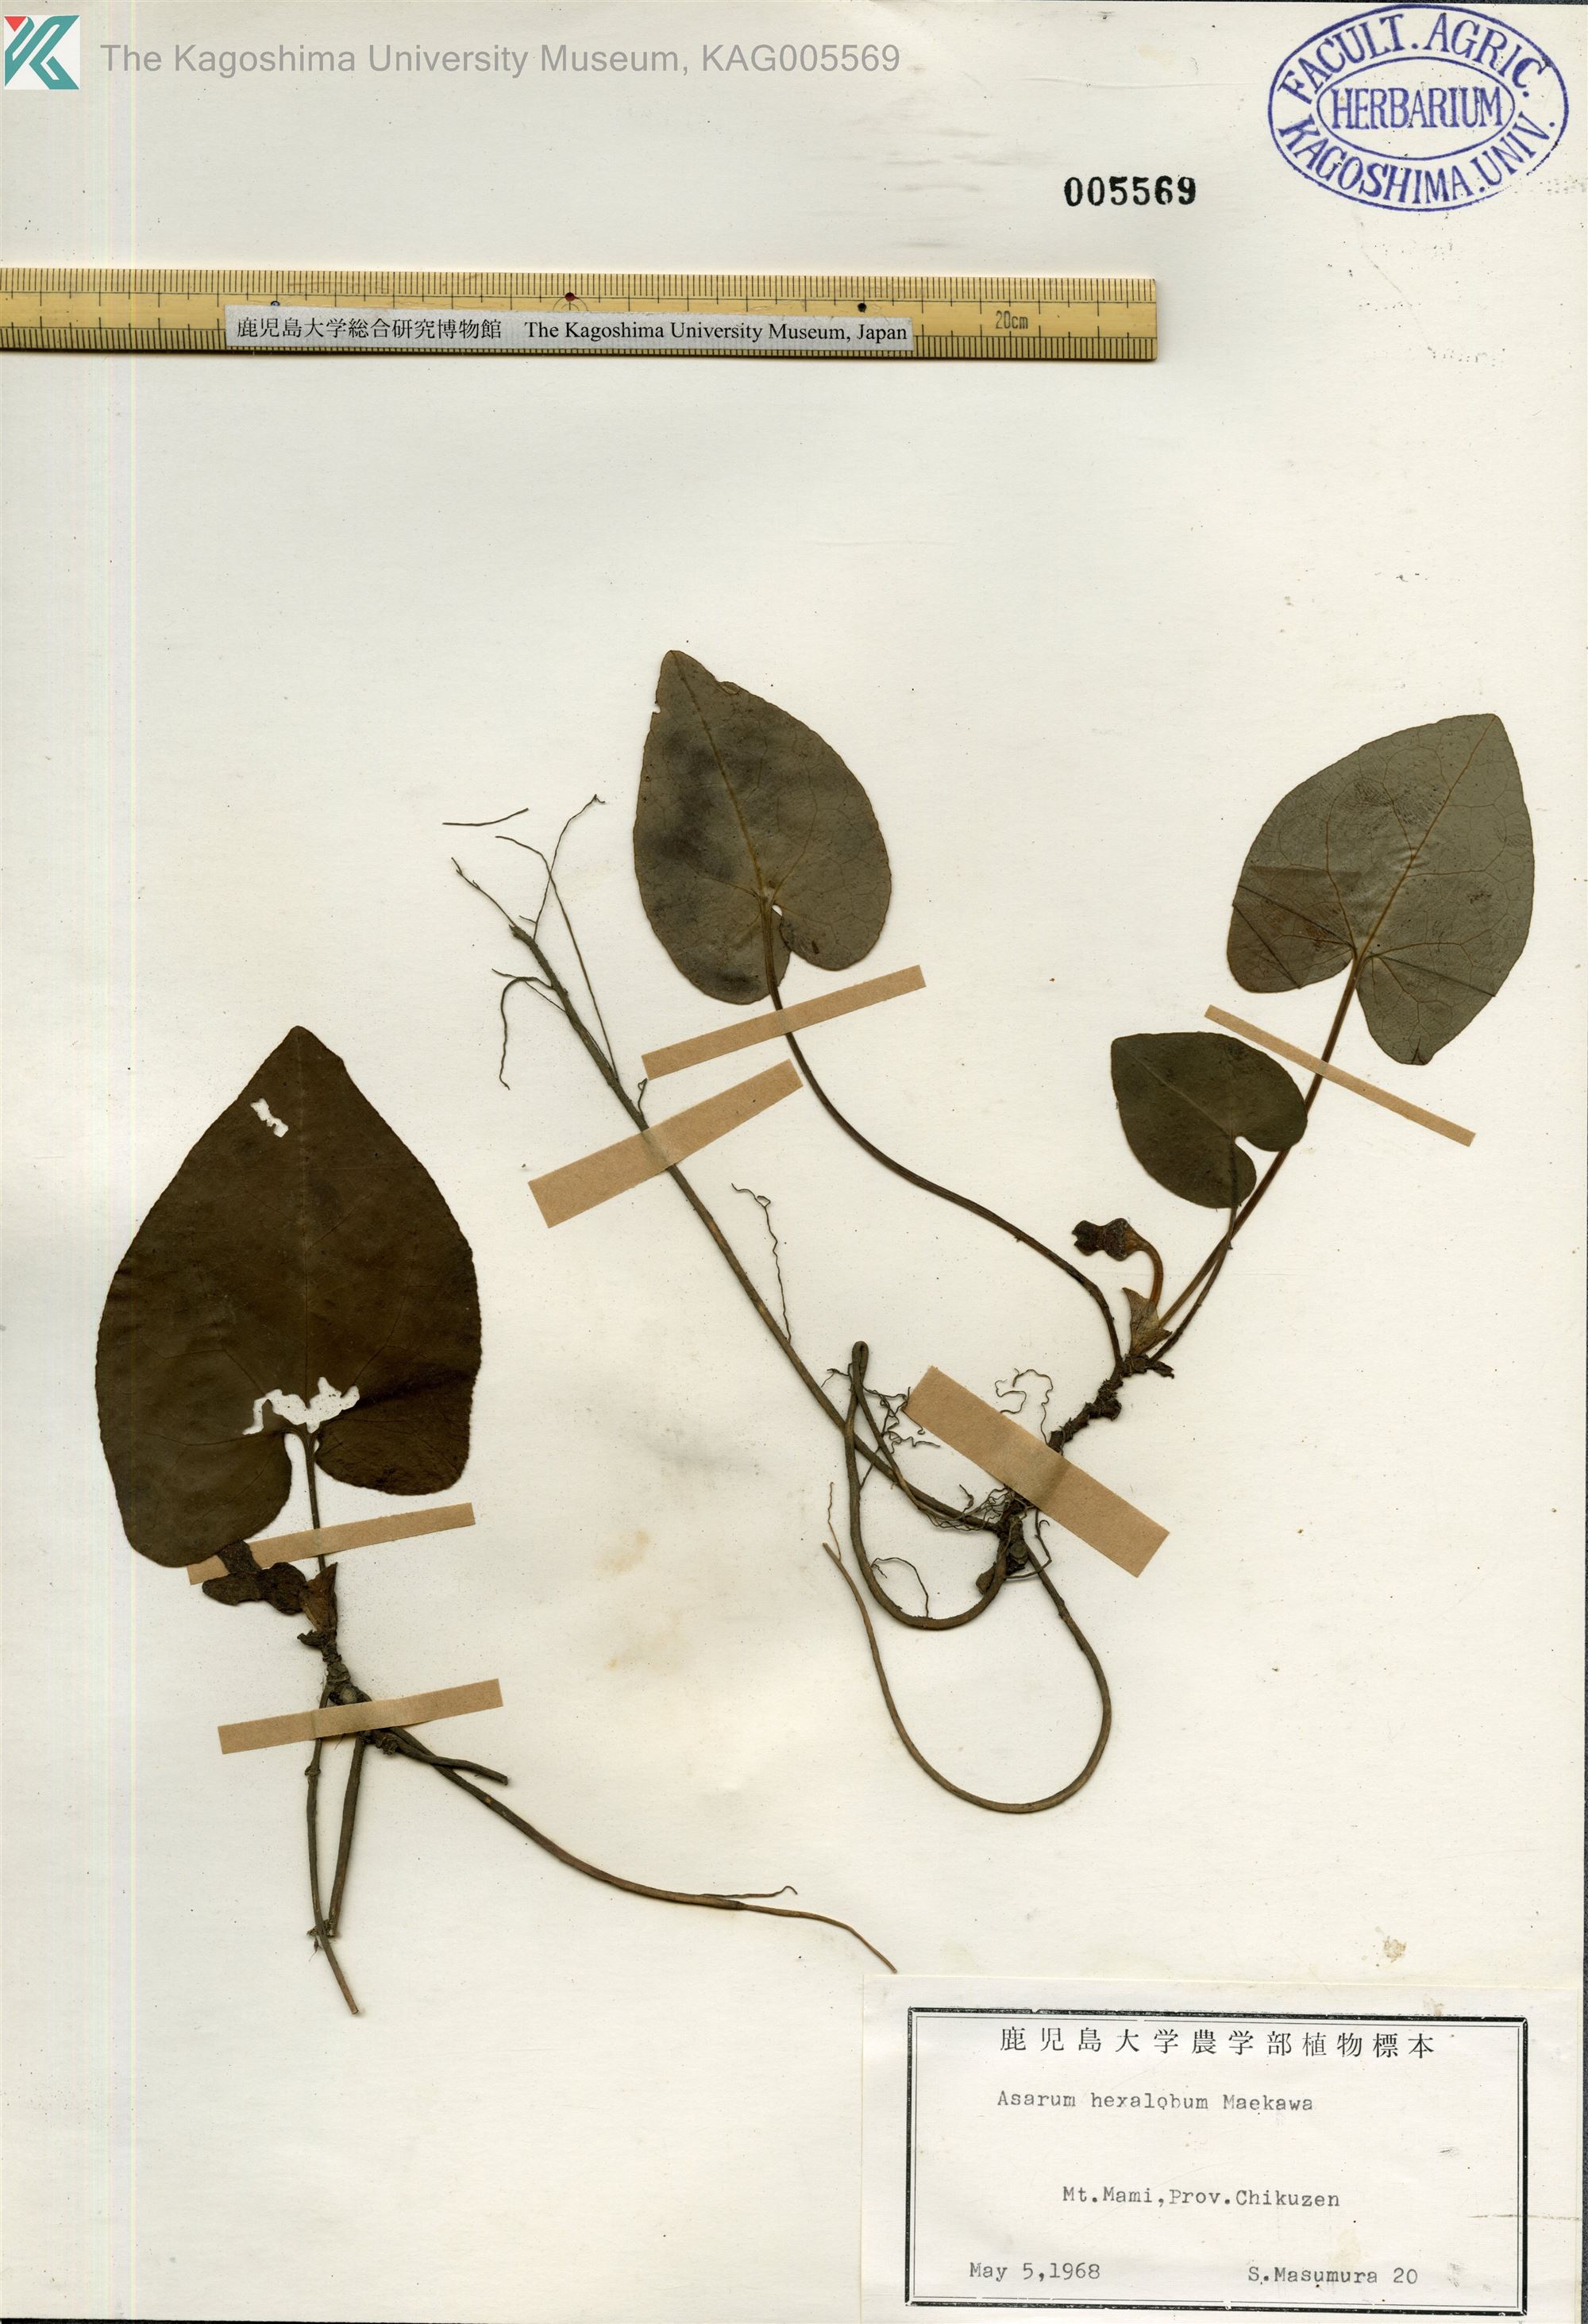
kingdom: Plantae
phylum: Tracheophyta
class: Magnoliopsida
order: Piperales
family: Aristolochiaceae
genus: Asarum
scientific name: Asarum hexalobum
